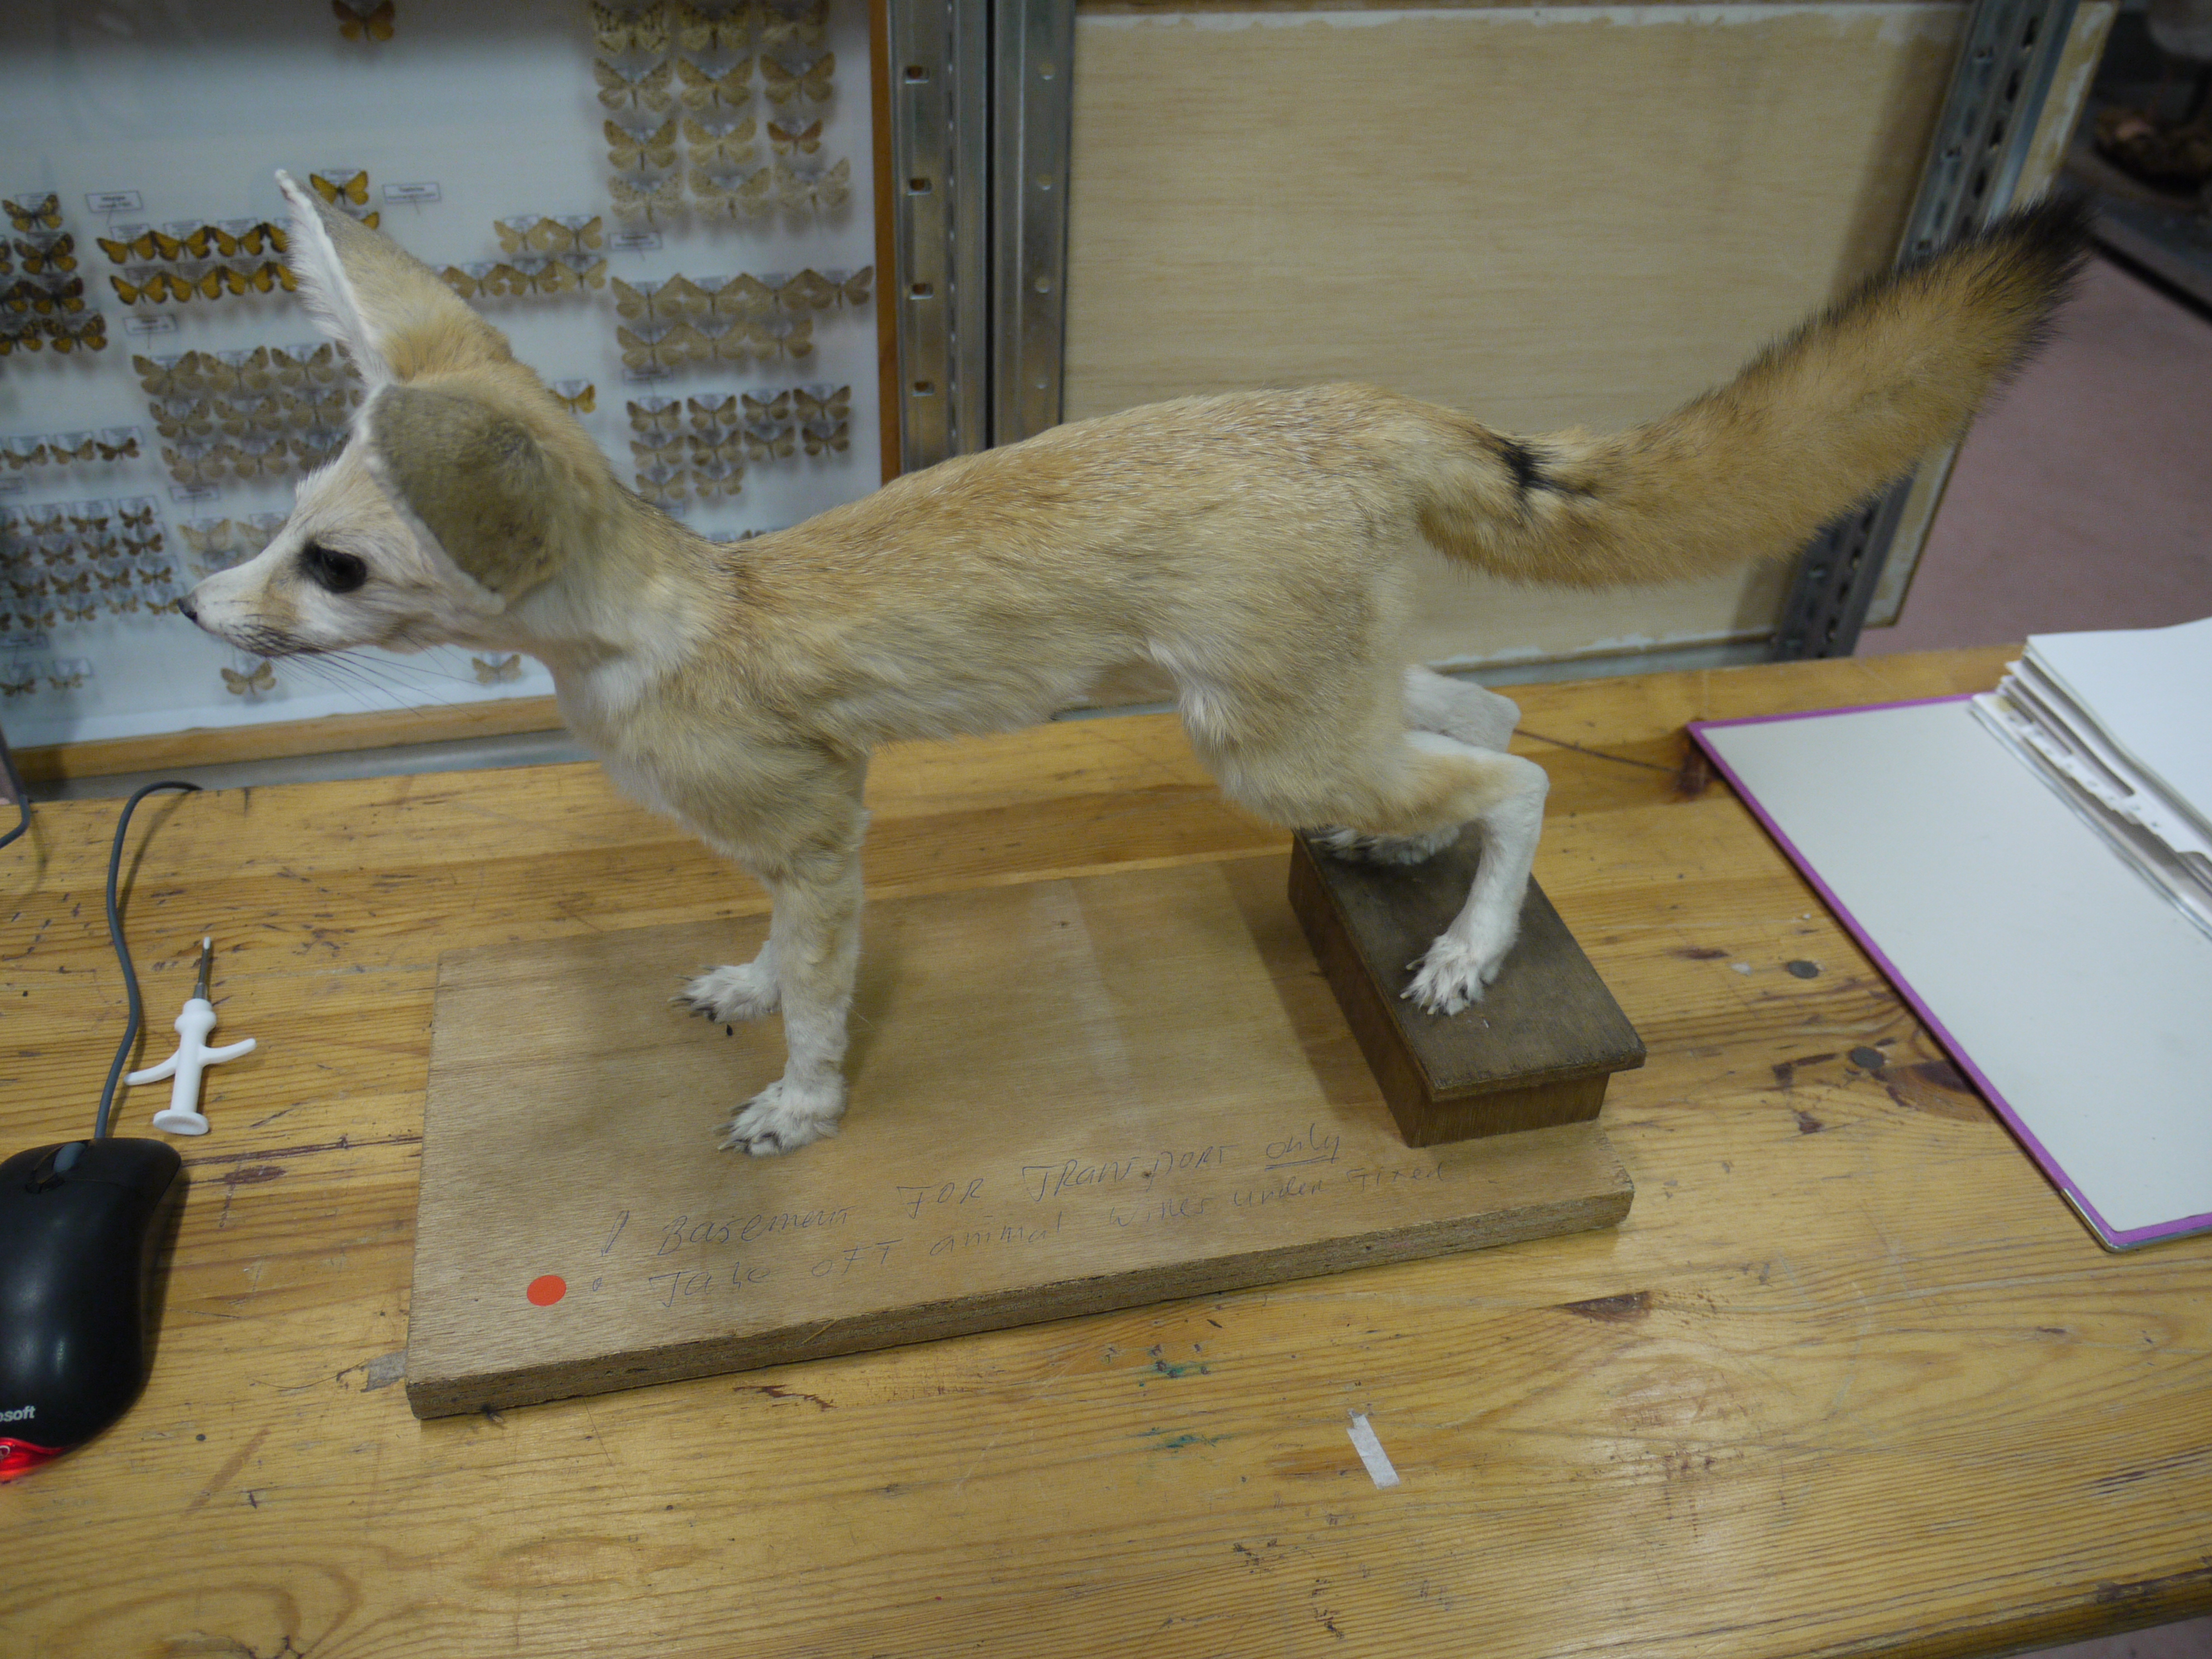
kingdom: Animalia
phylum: Chordata
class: Mammalia
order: Carnivora
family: Canidae
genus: Vulpes
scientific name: Vulpes zerda
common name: Fennec fox
